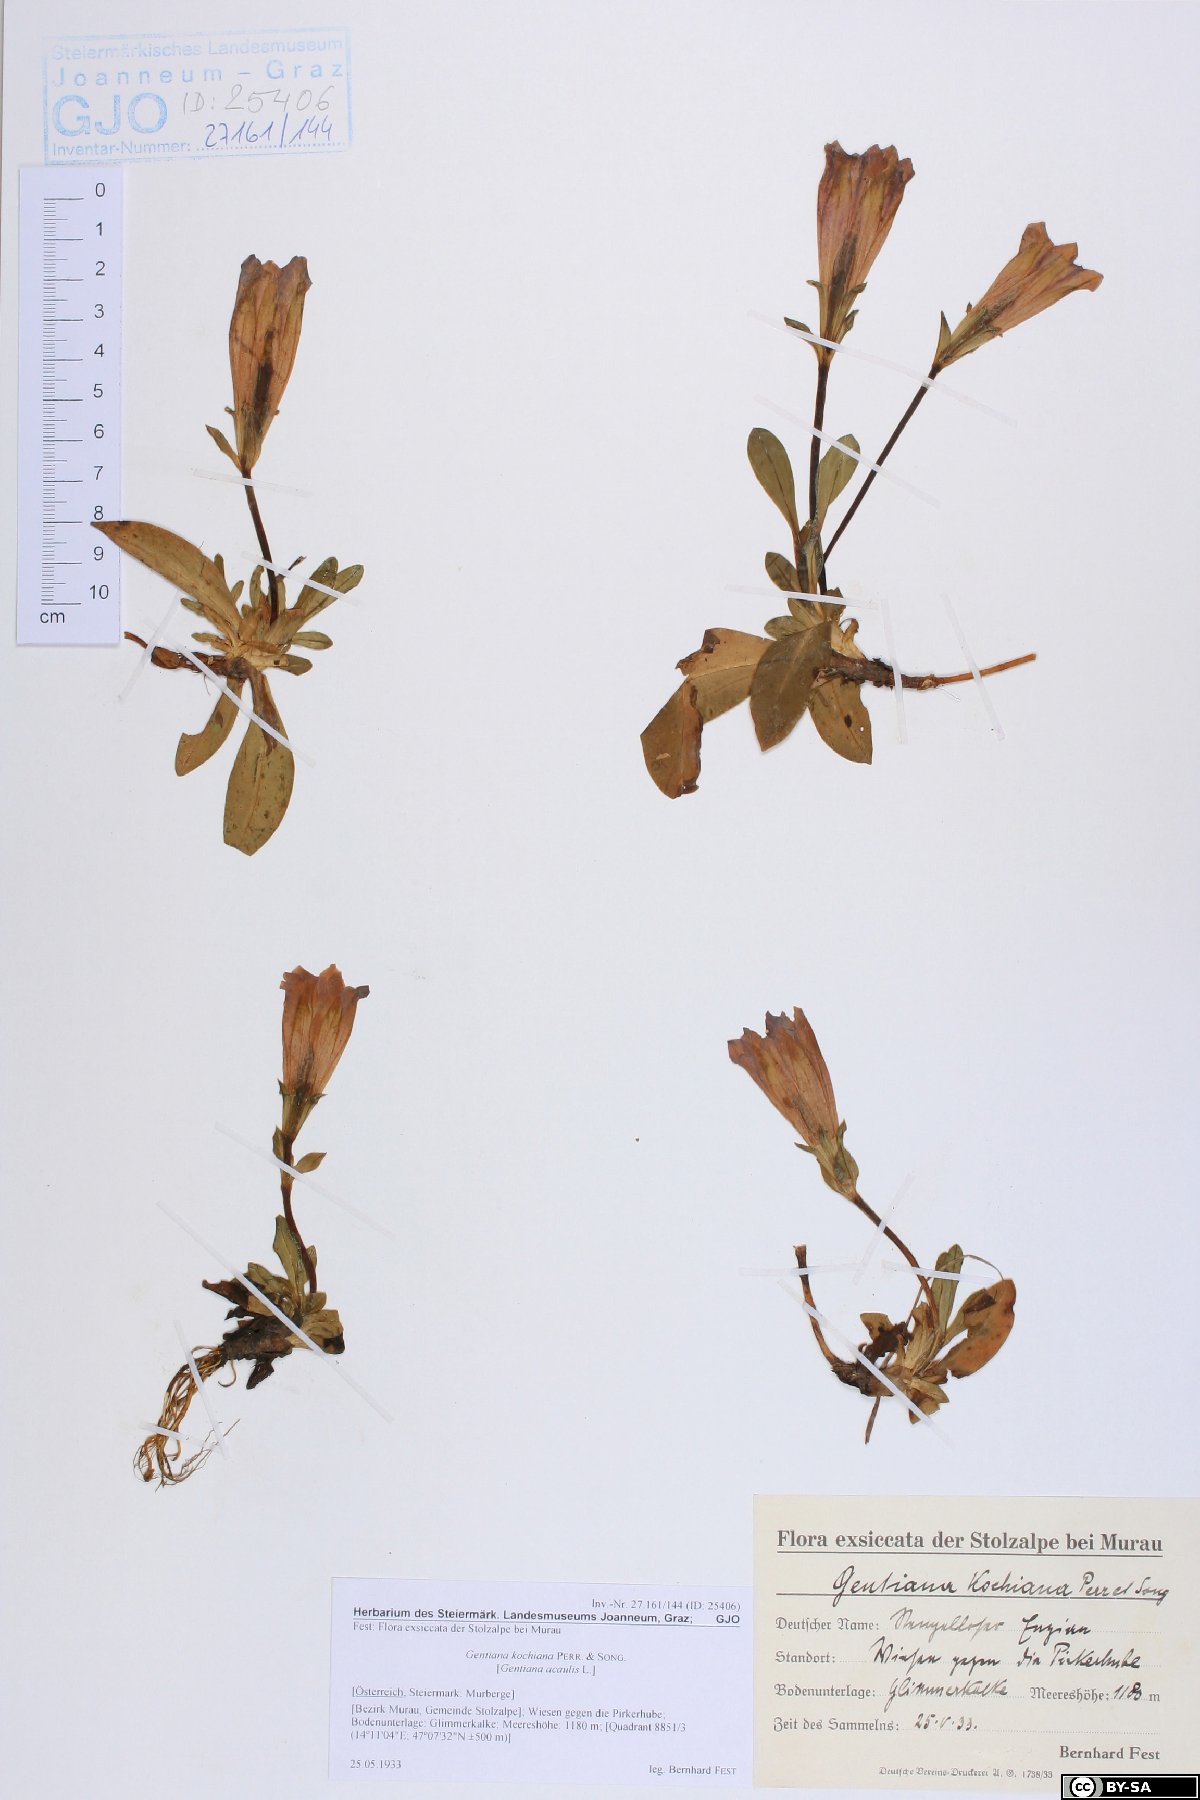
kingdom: Plantae
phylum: Tracheophyta
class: Magnoliopsida
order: Gentianales
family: Gentianaceae
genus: Gentiana
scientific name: Gentiana acaulis
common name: Trumpet gentian
